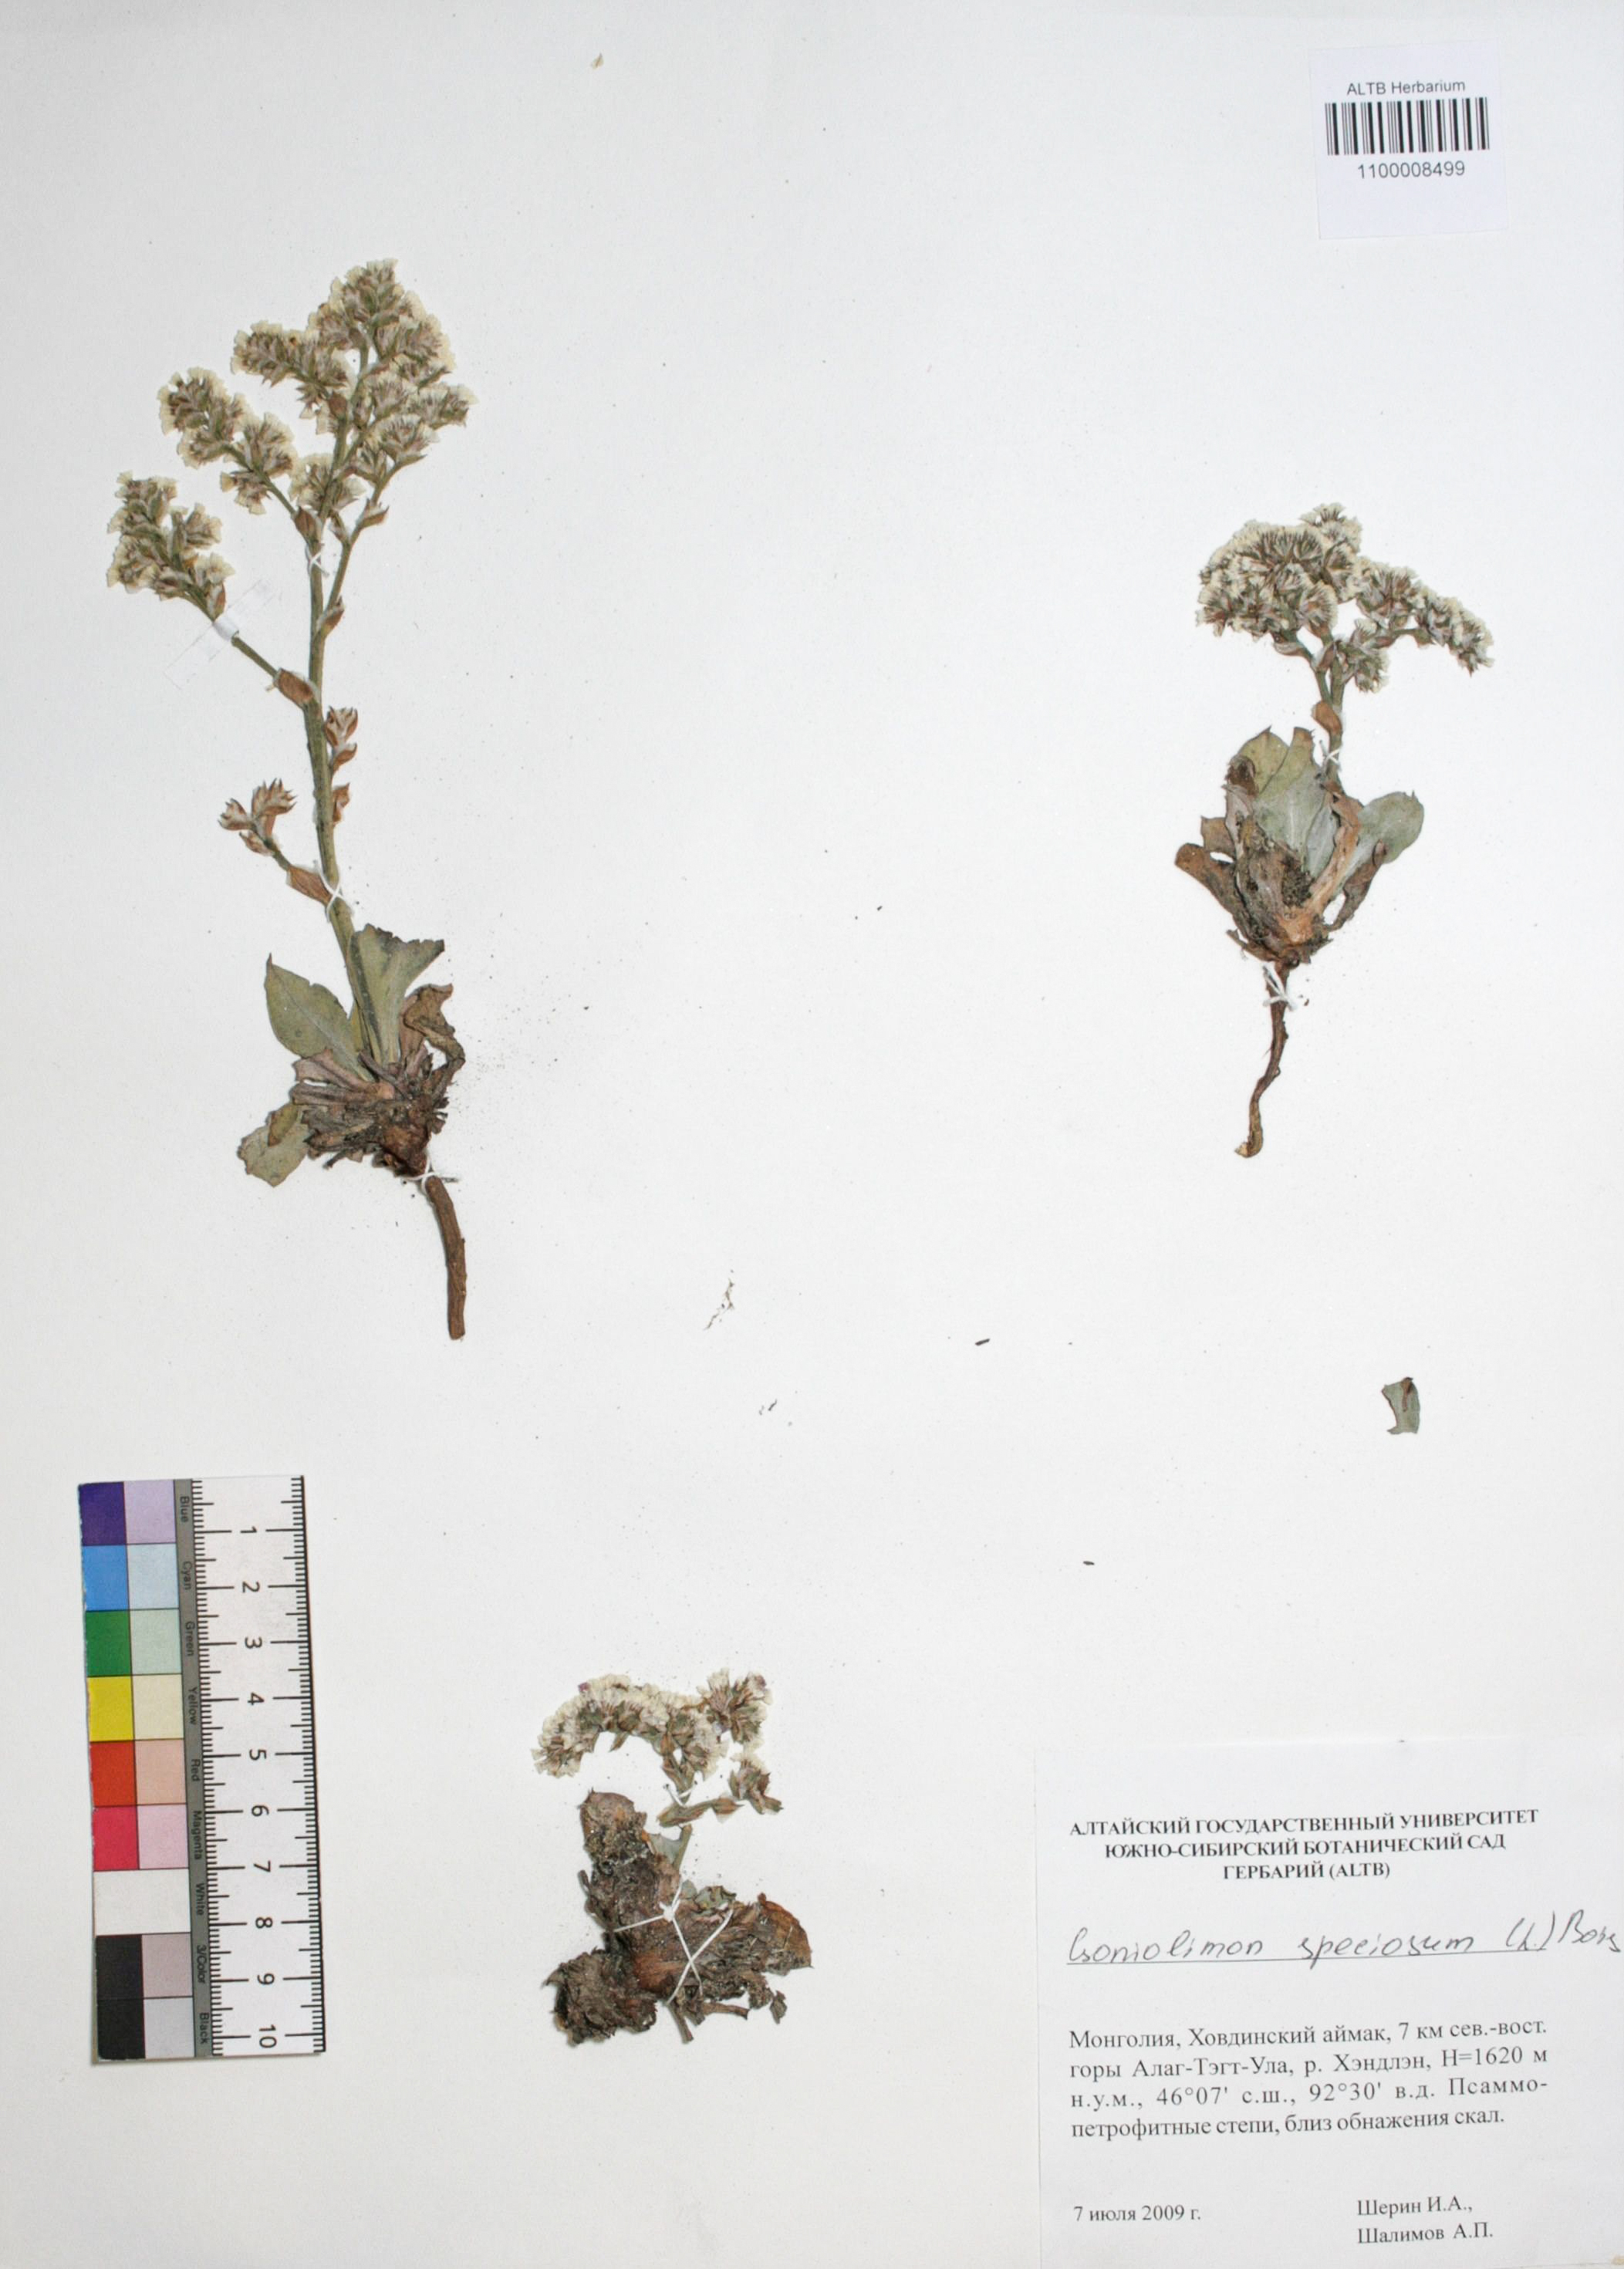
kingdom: Plantae
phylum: Tracheophyta
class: Magnoliopsida
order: Caryophyllales
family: Plumbaginaceae
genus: Goniolimon
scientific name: Goniolimon speciosum
